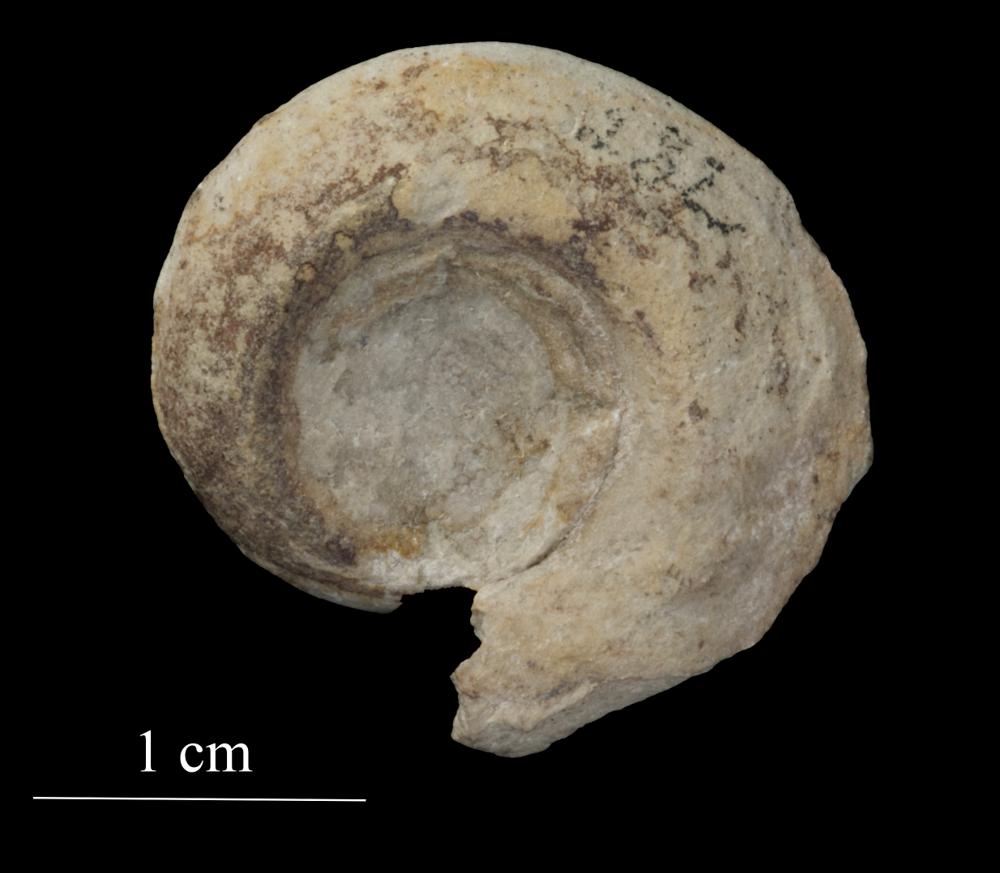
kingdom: Animalia
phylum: Mollusca
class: Gastropoda
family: Bellerophontidae
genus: Bellerophon
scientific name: Bellerophon contortus
